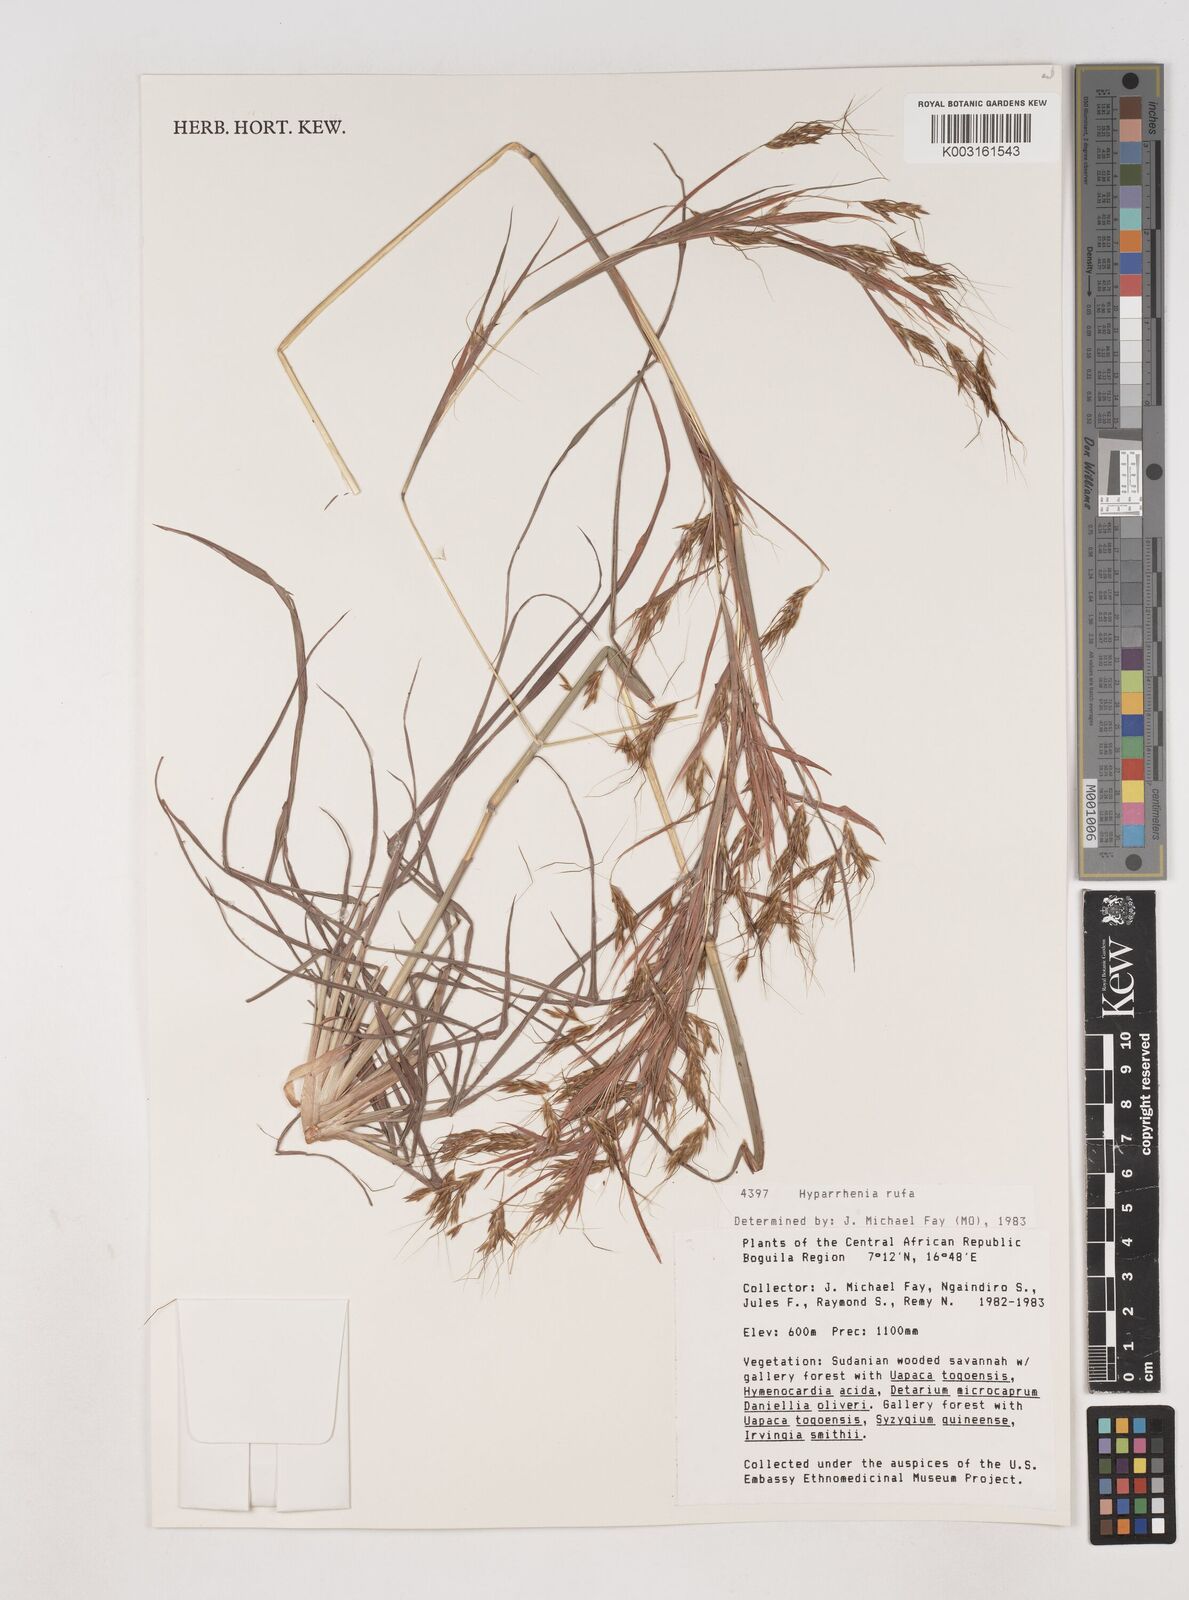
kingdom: Plantae
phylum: Tracheophyta
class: Liliopsida
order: Poales
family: Poaceae
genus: Hyparrhenia
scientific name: Hyparrhenia rufa
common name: Jaraguagrass
